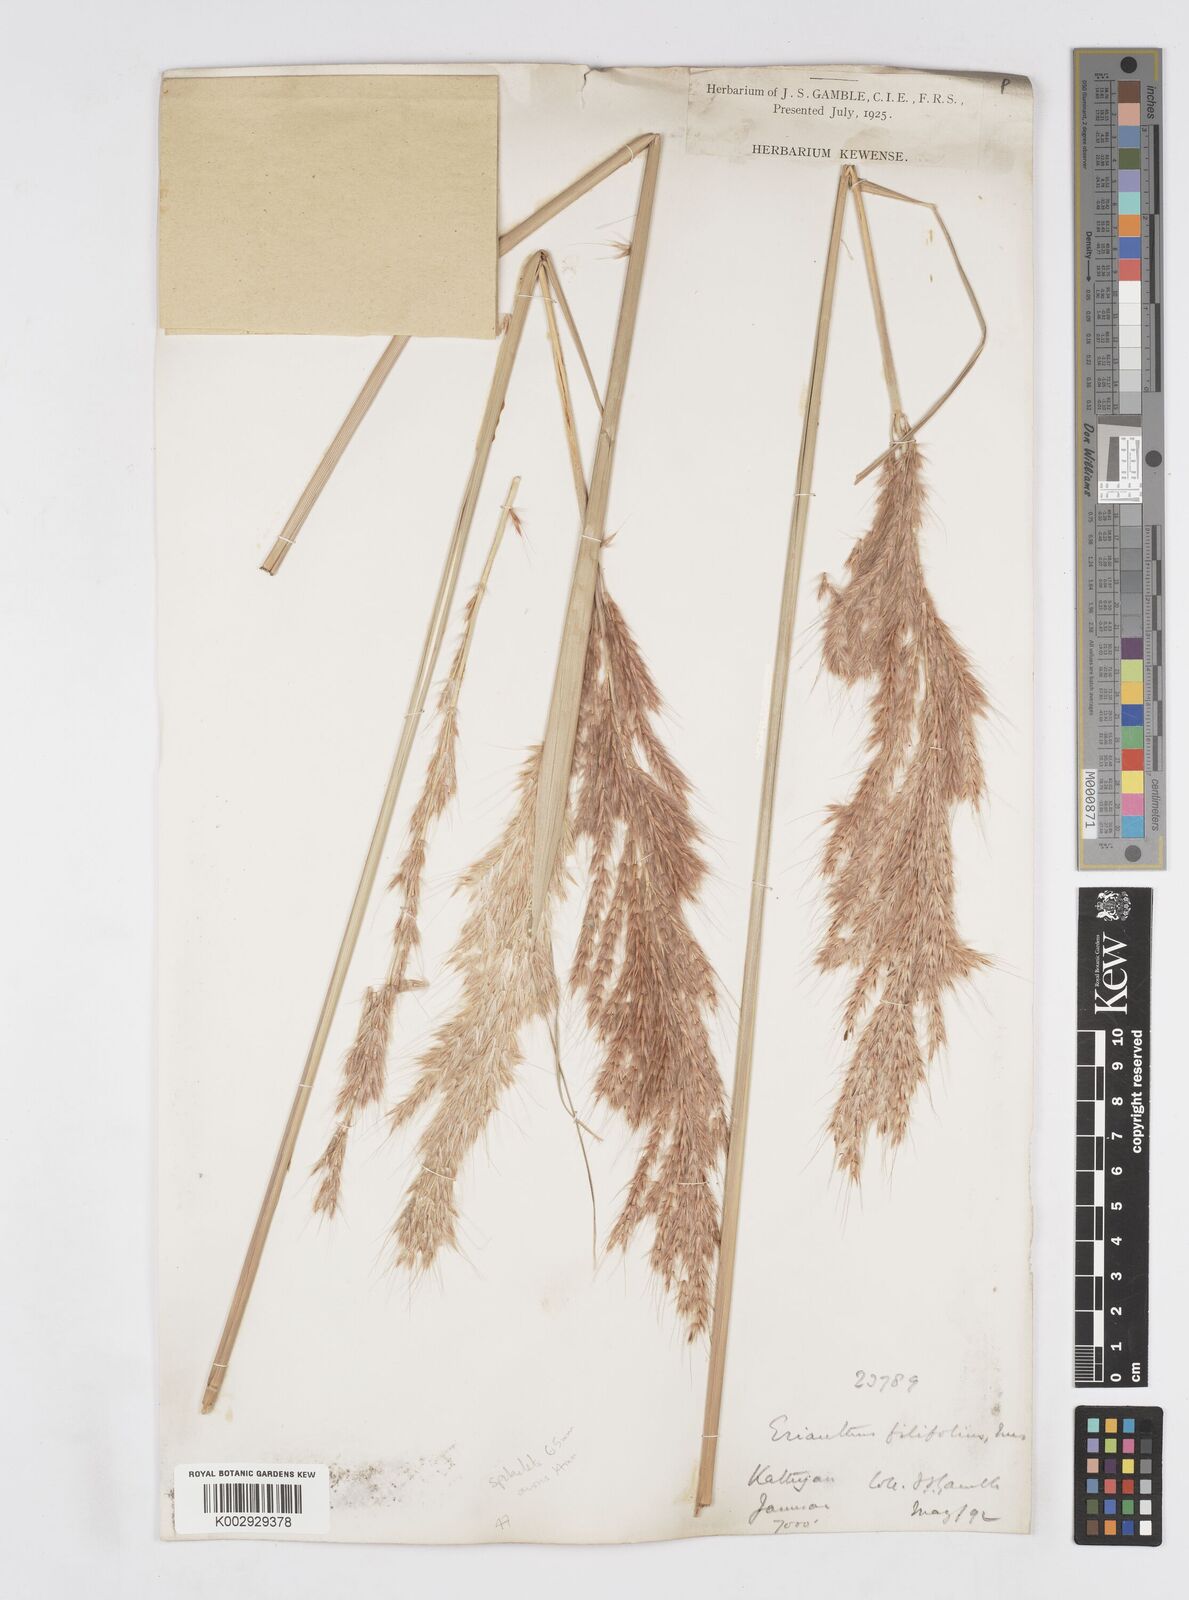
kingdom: Plantae
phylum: Tracheophyta
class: Liliopsida
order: Poales
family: Poaceae
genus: Saccharum
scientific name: Saccharum filifolium
